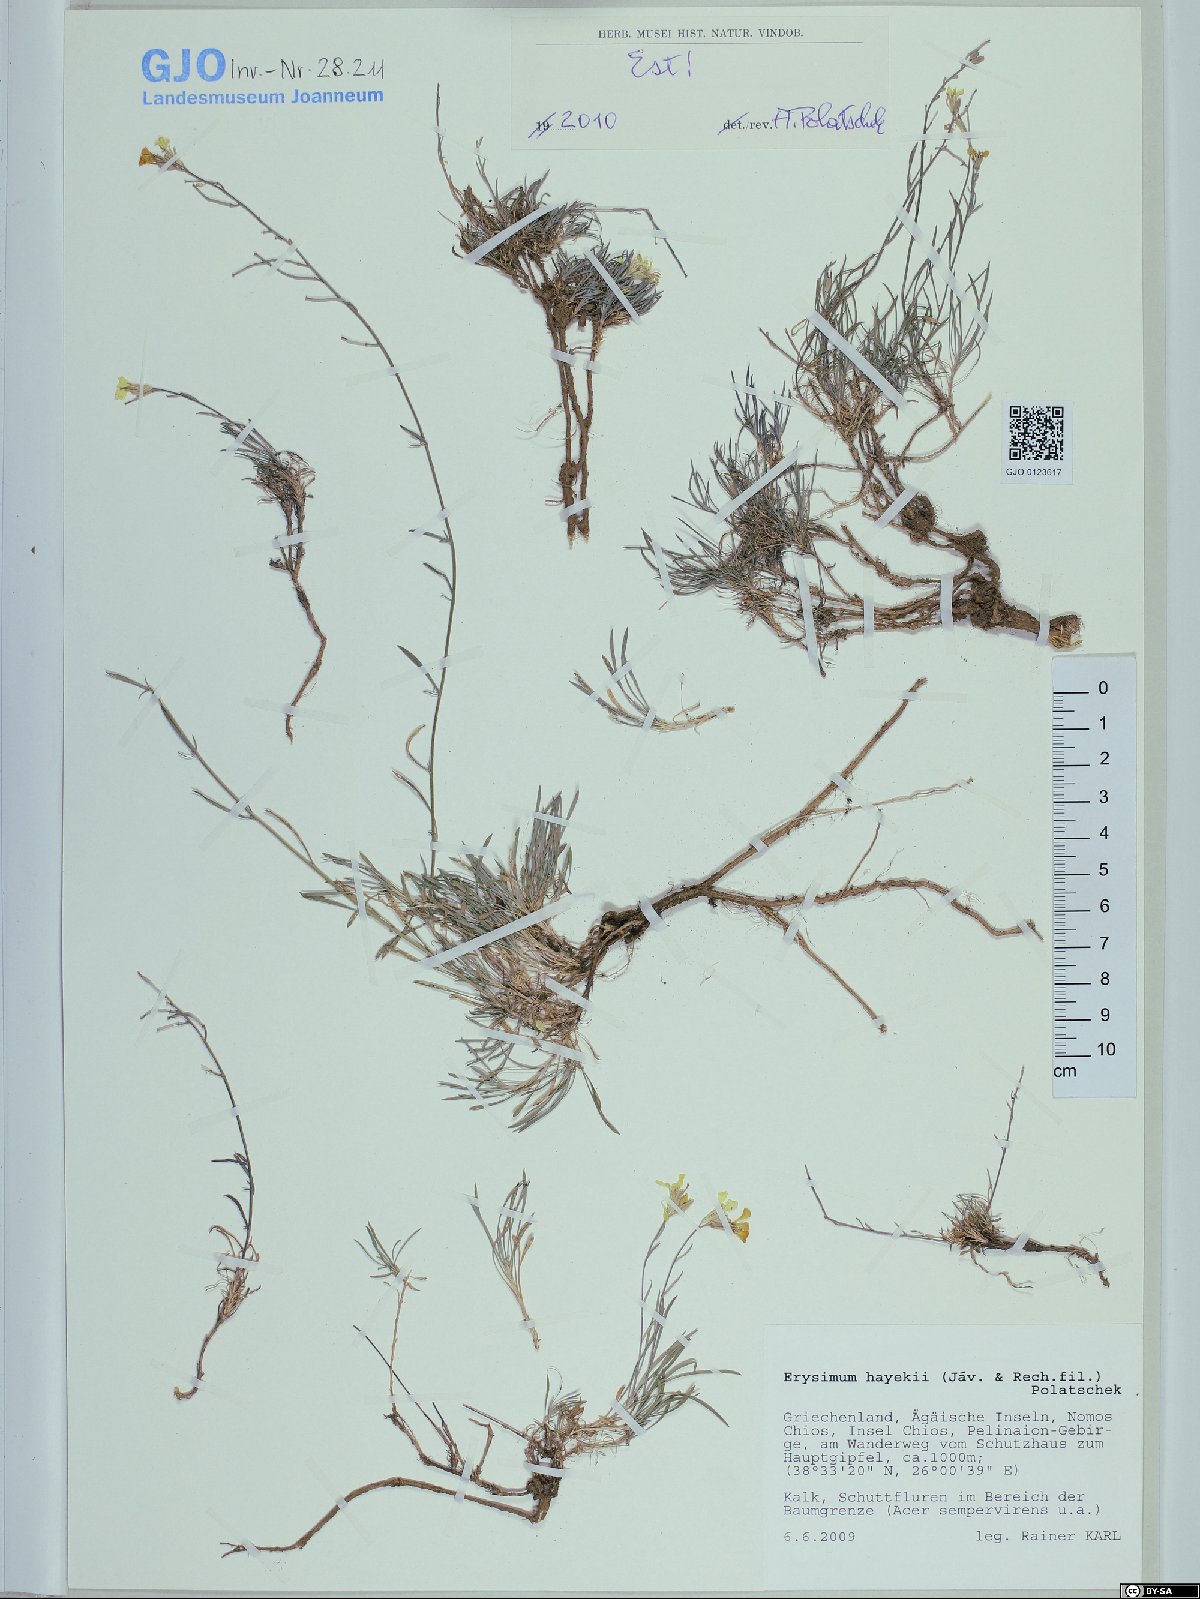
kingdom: Plantae
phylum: Tracheophyta
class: Magnoliopsida
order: Brassicales
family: Brassicaceae
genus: Erysimum
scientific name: Erysimum pusillum
